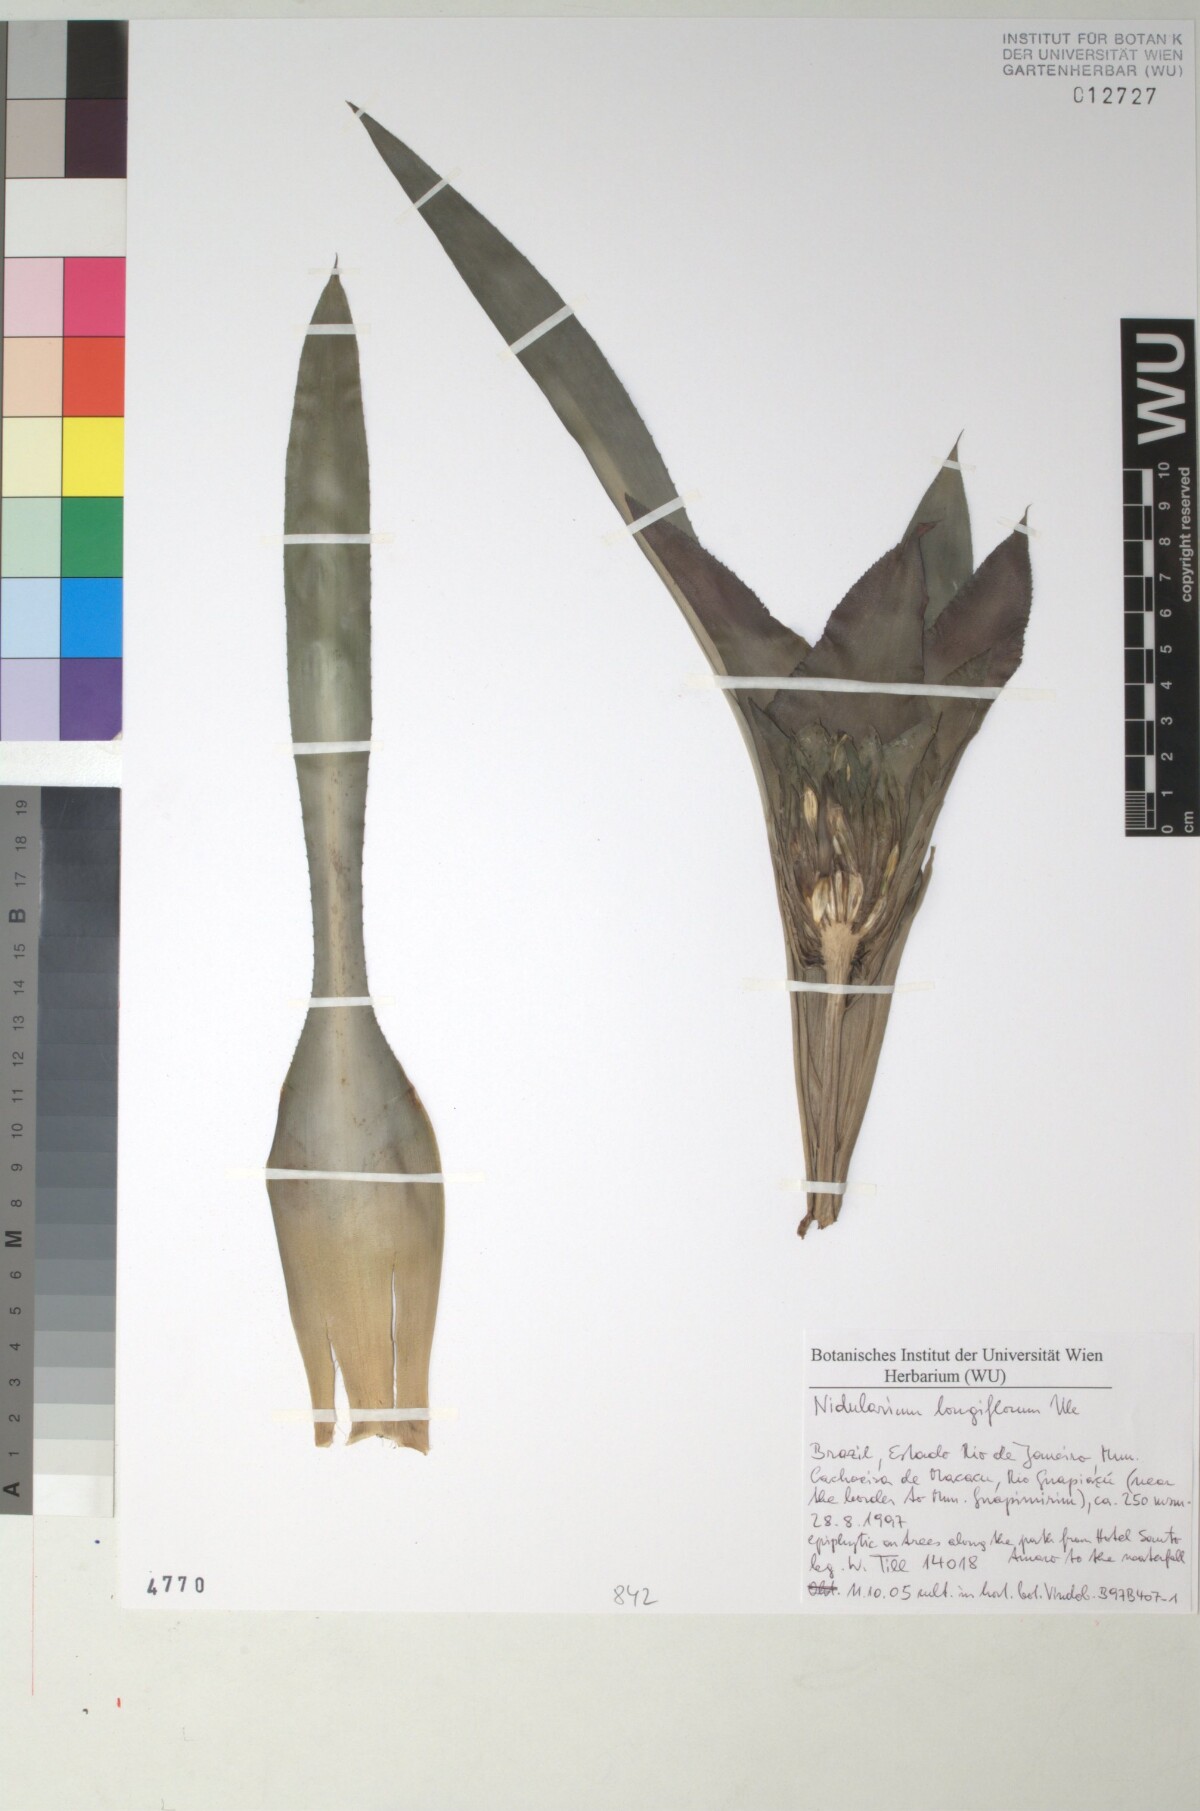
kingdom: Plantae
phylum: Tracheophyta
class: Liliopsida
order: Poales
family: Bromeliaceae
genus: Nidularium
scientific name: Nidularium longiflorum
